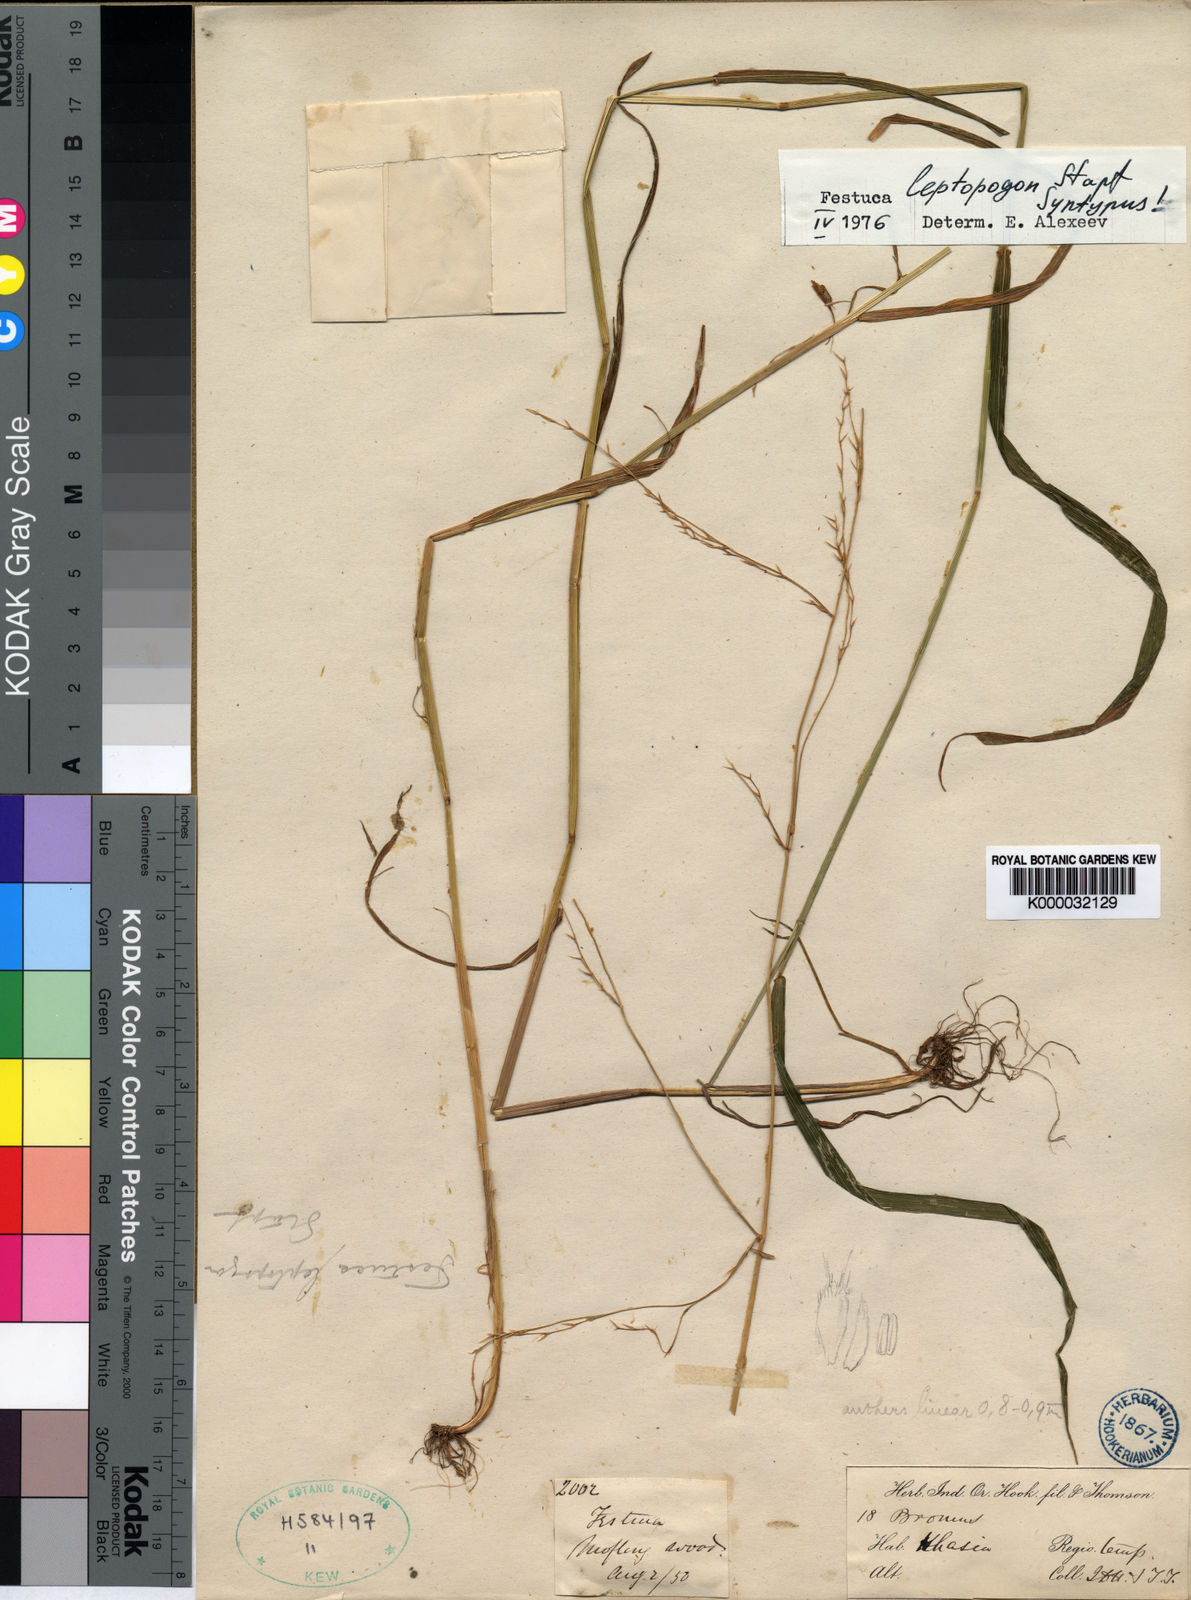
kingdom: Plantae
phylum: Tracheophyta
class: Liliopsida
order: Poales
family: Poaceae
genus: Festuca
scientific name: Festuca leptopogon
